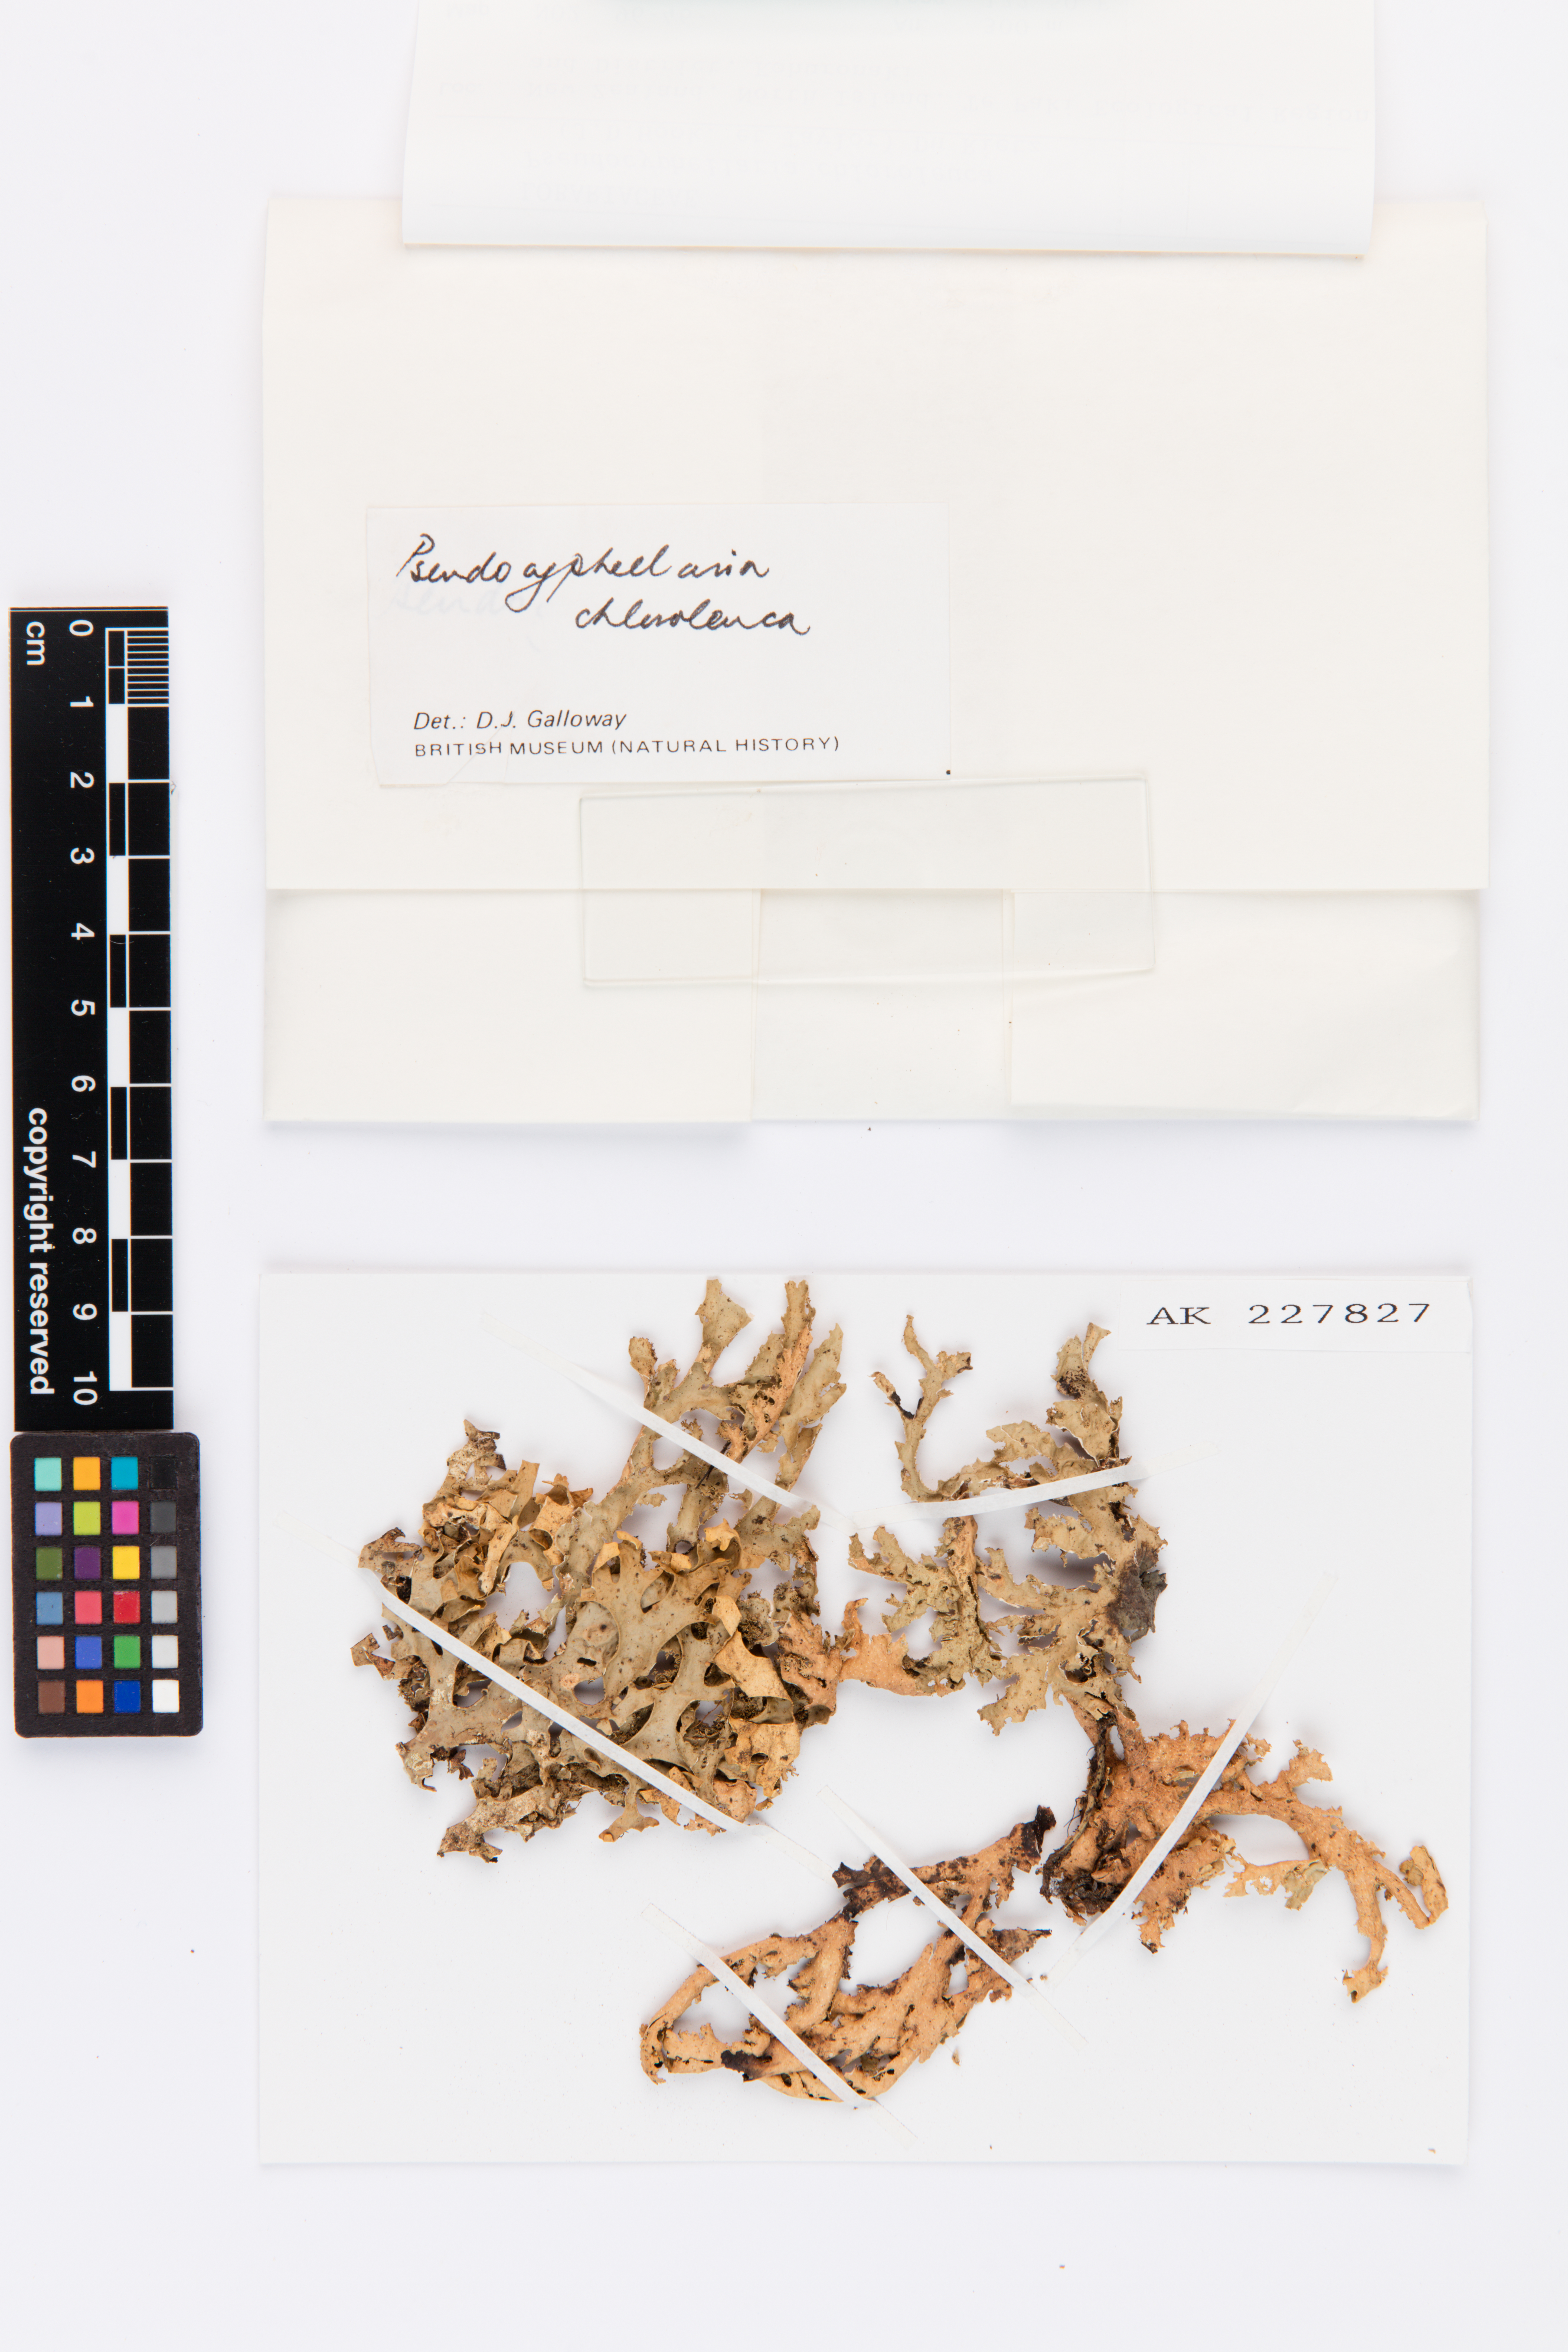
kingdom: Fungi
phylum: Ascomycota
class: Lecanoromycetes
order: Peltigerales
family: Lobariaceae
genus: Pseudocyphellaria
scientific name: Pseudocyphellaria chloroleuca
